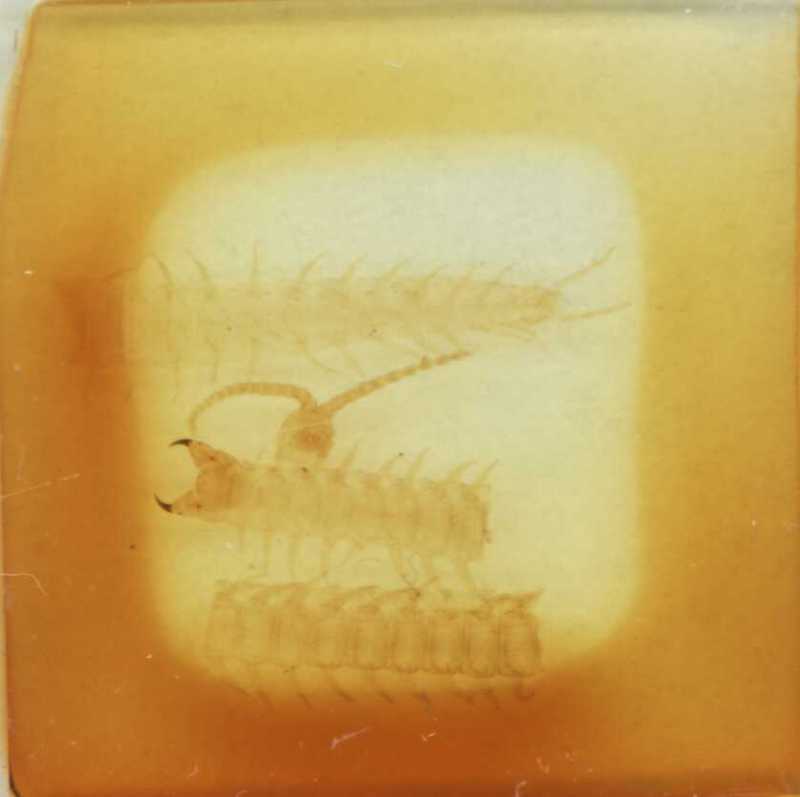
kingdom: Animalia
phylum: Arthropoda
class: Chilopoda
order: Geophilomorpha
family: Geophilidae
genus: Clinopodes
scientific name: Clinopodes flavidus
